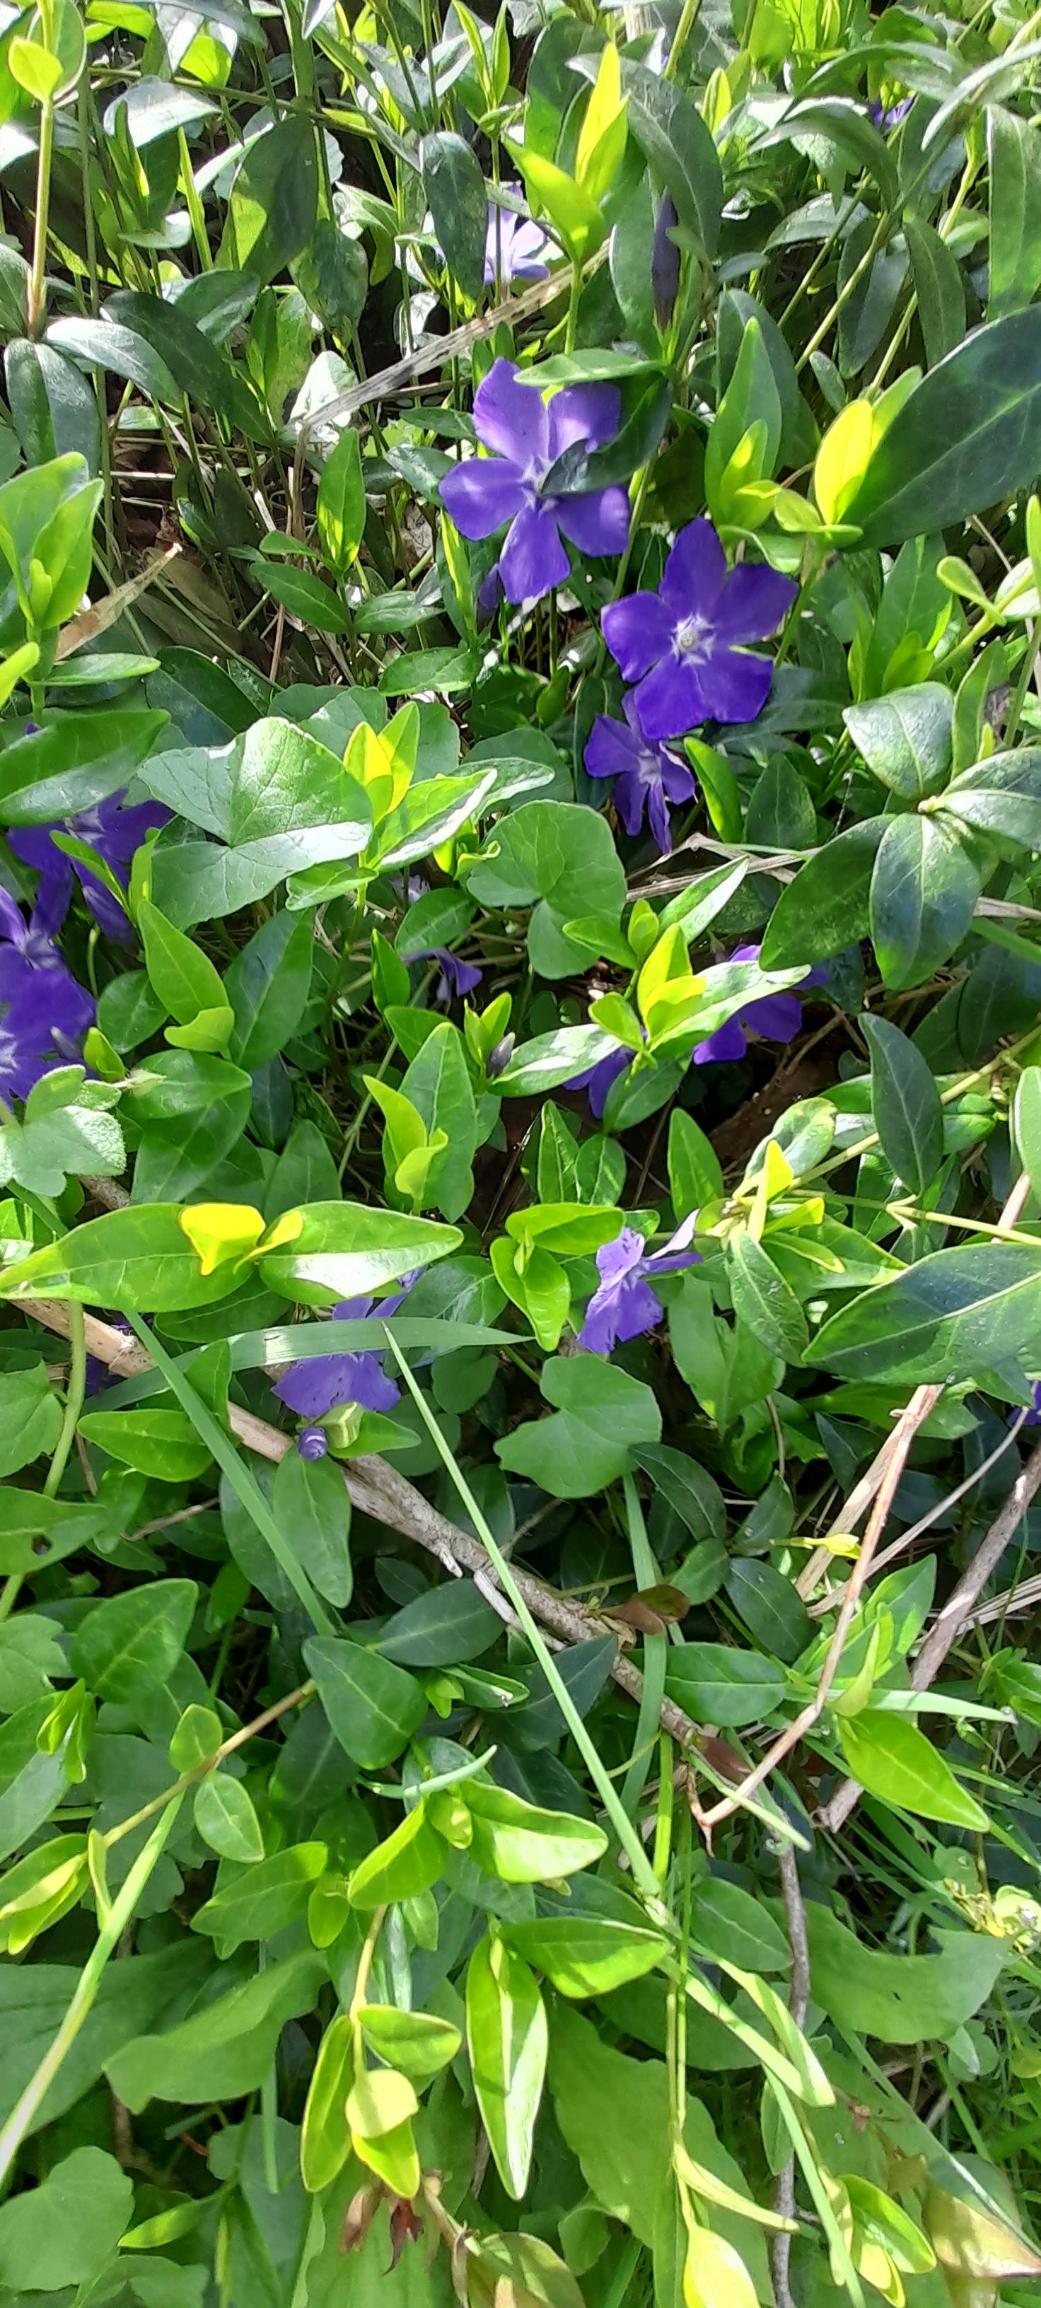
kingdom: Plantae
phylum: Tracheophyta
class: Magnoliopsida
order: Gentianales
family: Apocynaceae
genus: Vinca
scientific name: Vinca minor
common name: Liden singrøn
